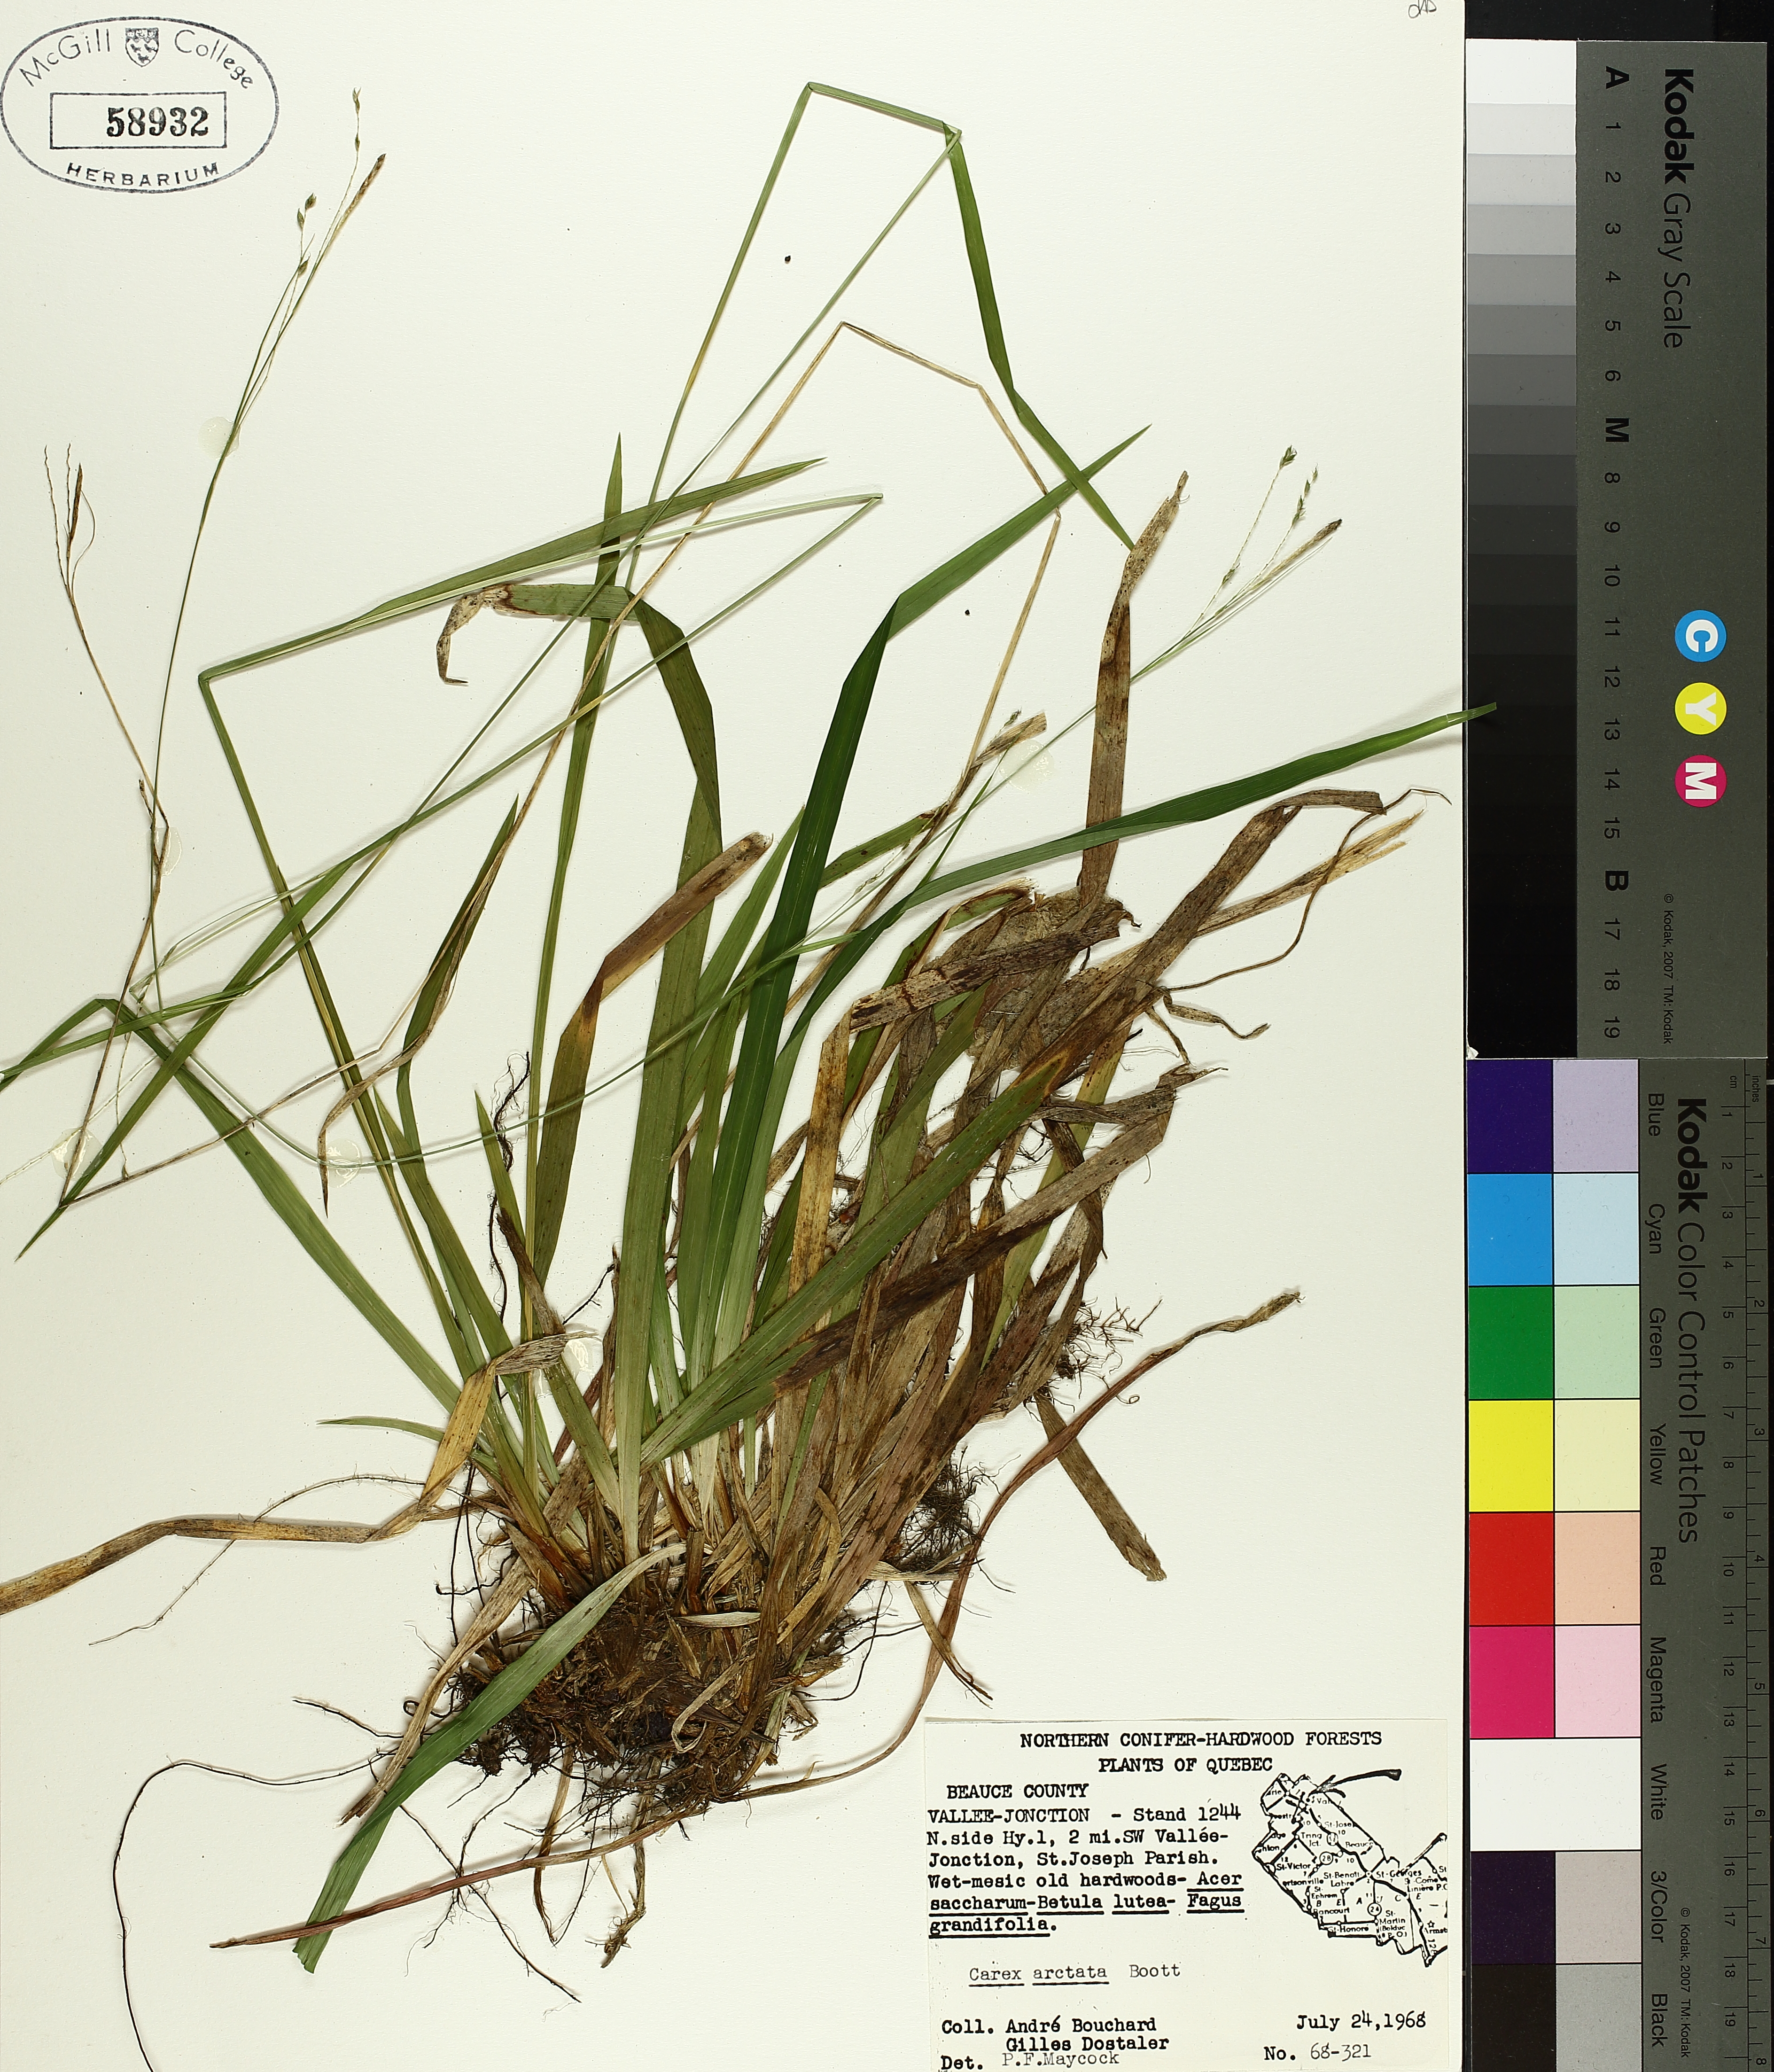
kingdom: Plantae
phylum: Tracheophyta
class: Liliopsida
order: Poales
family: Cyperaceae
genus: Carex
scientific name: Carex arctata
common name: Black sedge
